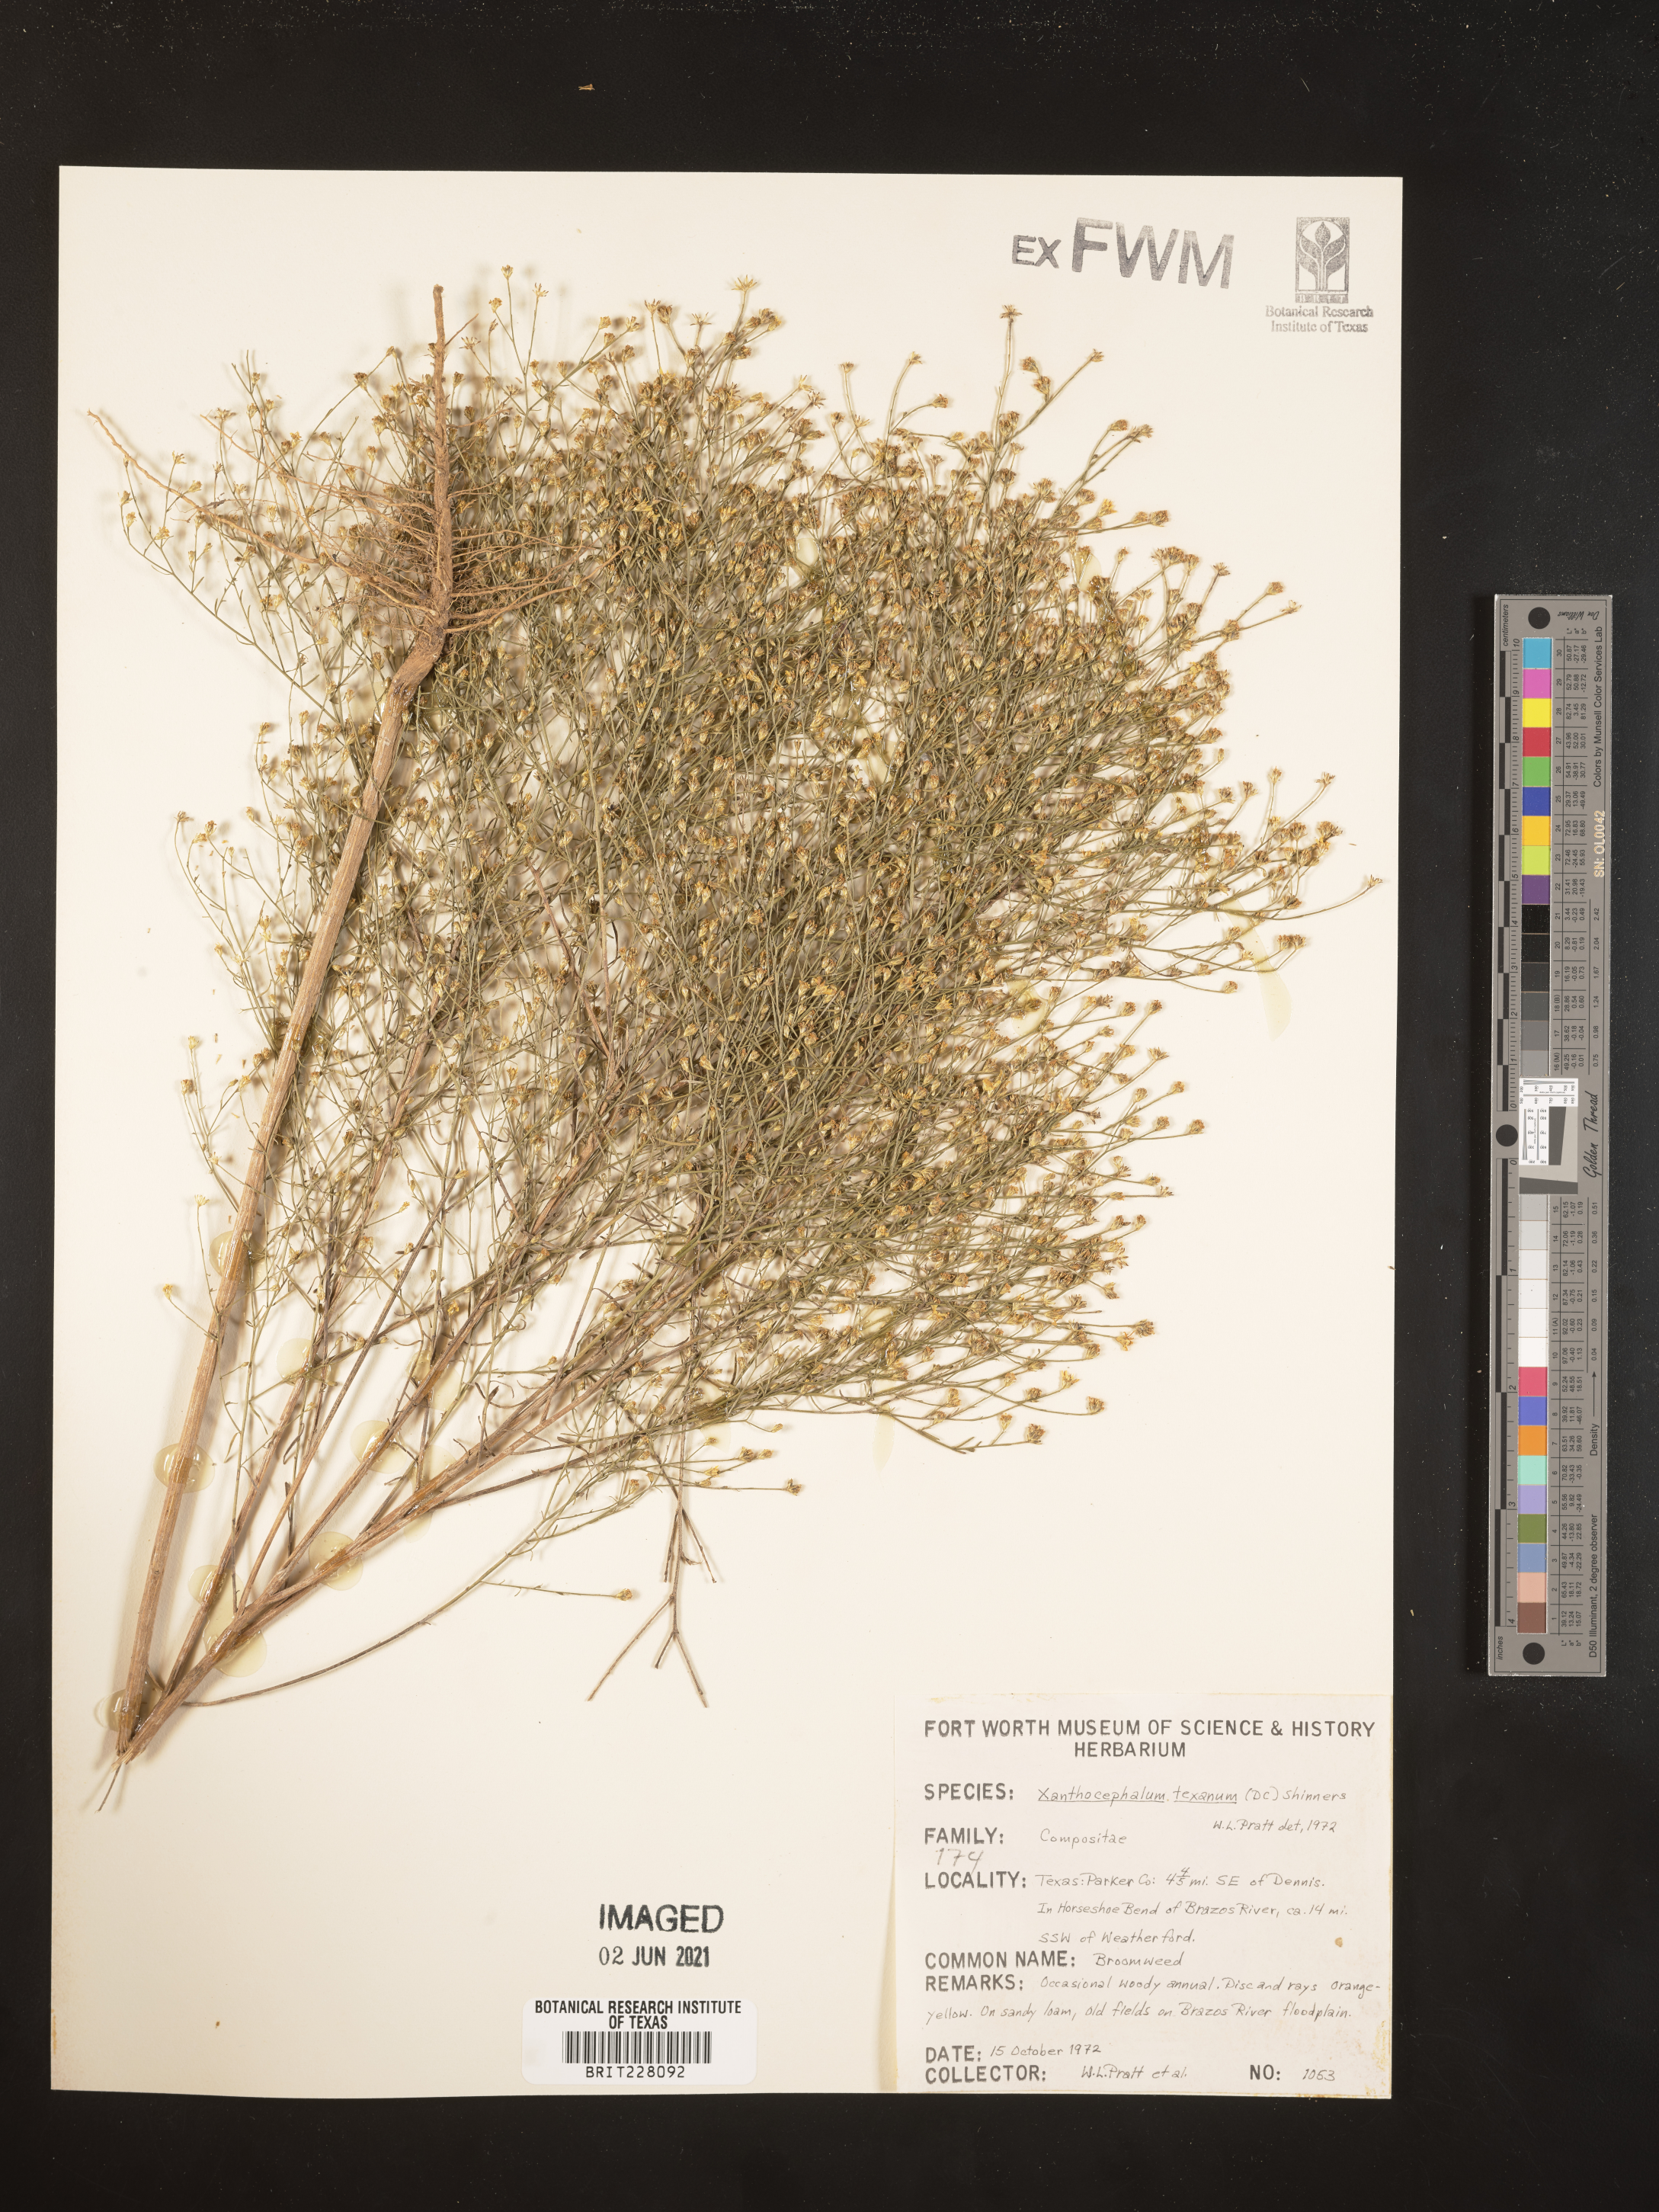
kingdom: Plantae
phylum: Tracheophyta
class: Magnoliopsida
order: Asterales
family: Asteraceae
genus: Gutierrezia
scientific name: Gutierrezia texana
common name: Texas snakeweed
